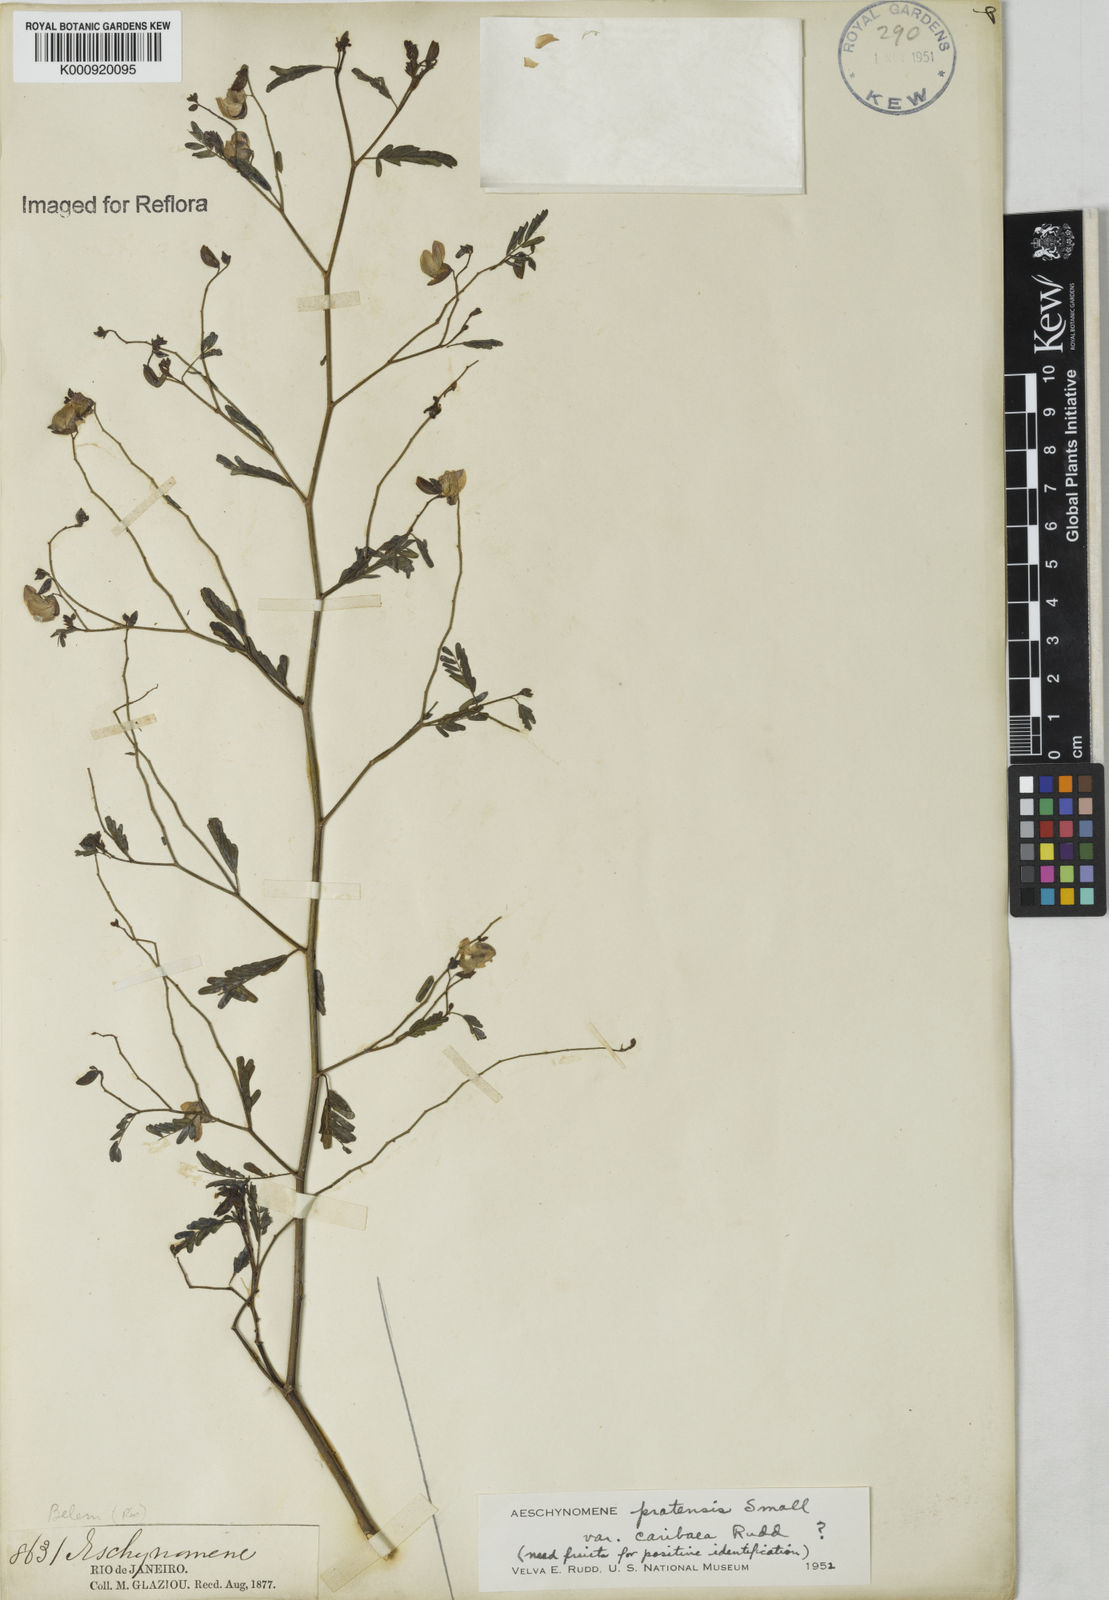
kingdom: Plantae
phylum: Tracheophyta
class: Magnoliopsida
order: Fabales
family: Fabaceae
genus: Aeschynomene
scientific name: Aeschynomene pratensis
